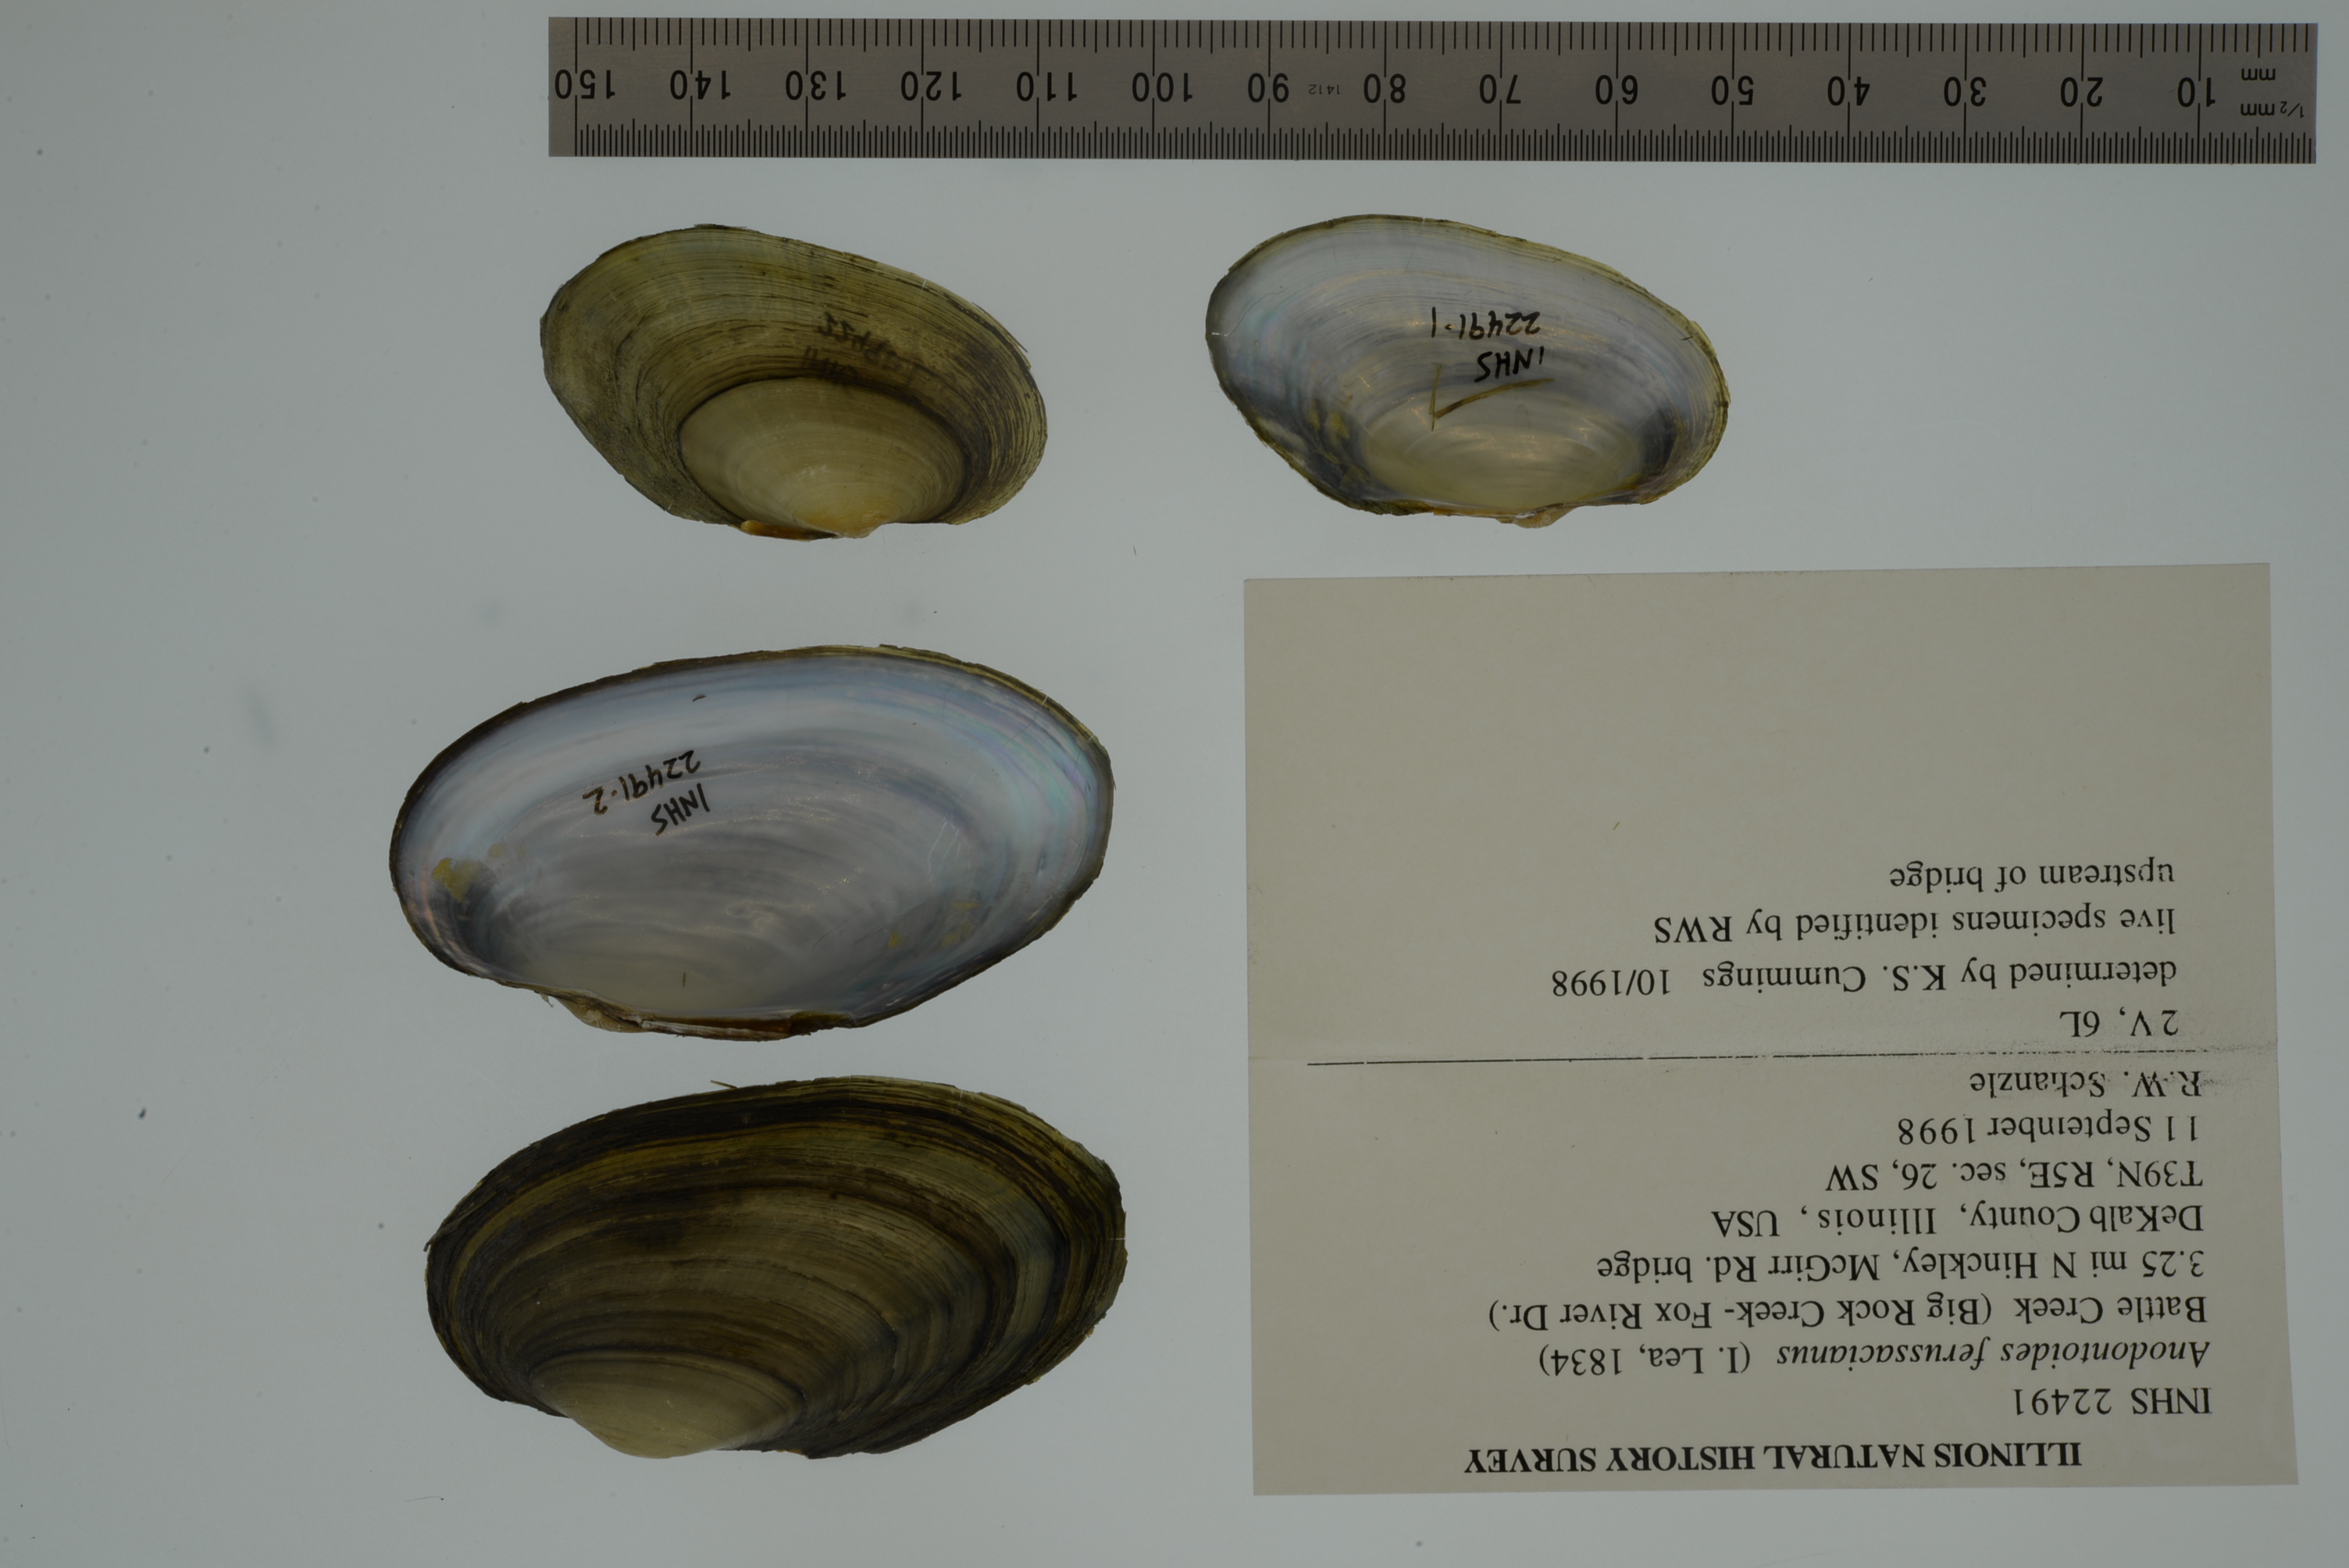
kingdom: Animalia
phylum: Mollusca
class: Bivalvia
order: Unionida
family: Unionidae
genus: Anodontoides
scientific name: Anodontoides ferussacianus
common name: Cylindrical papershell
